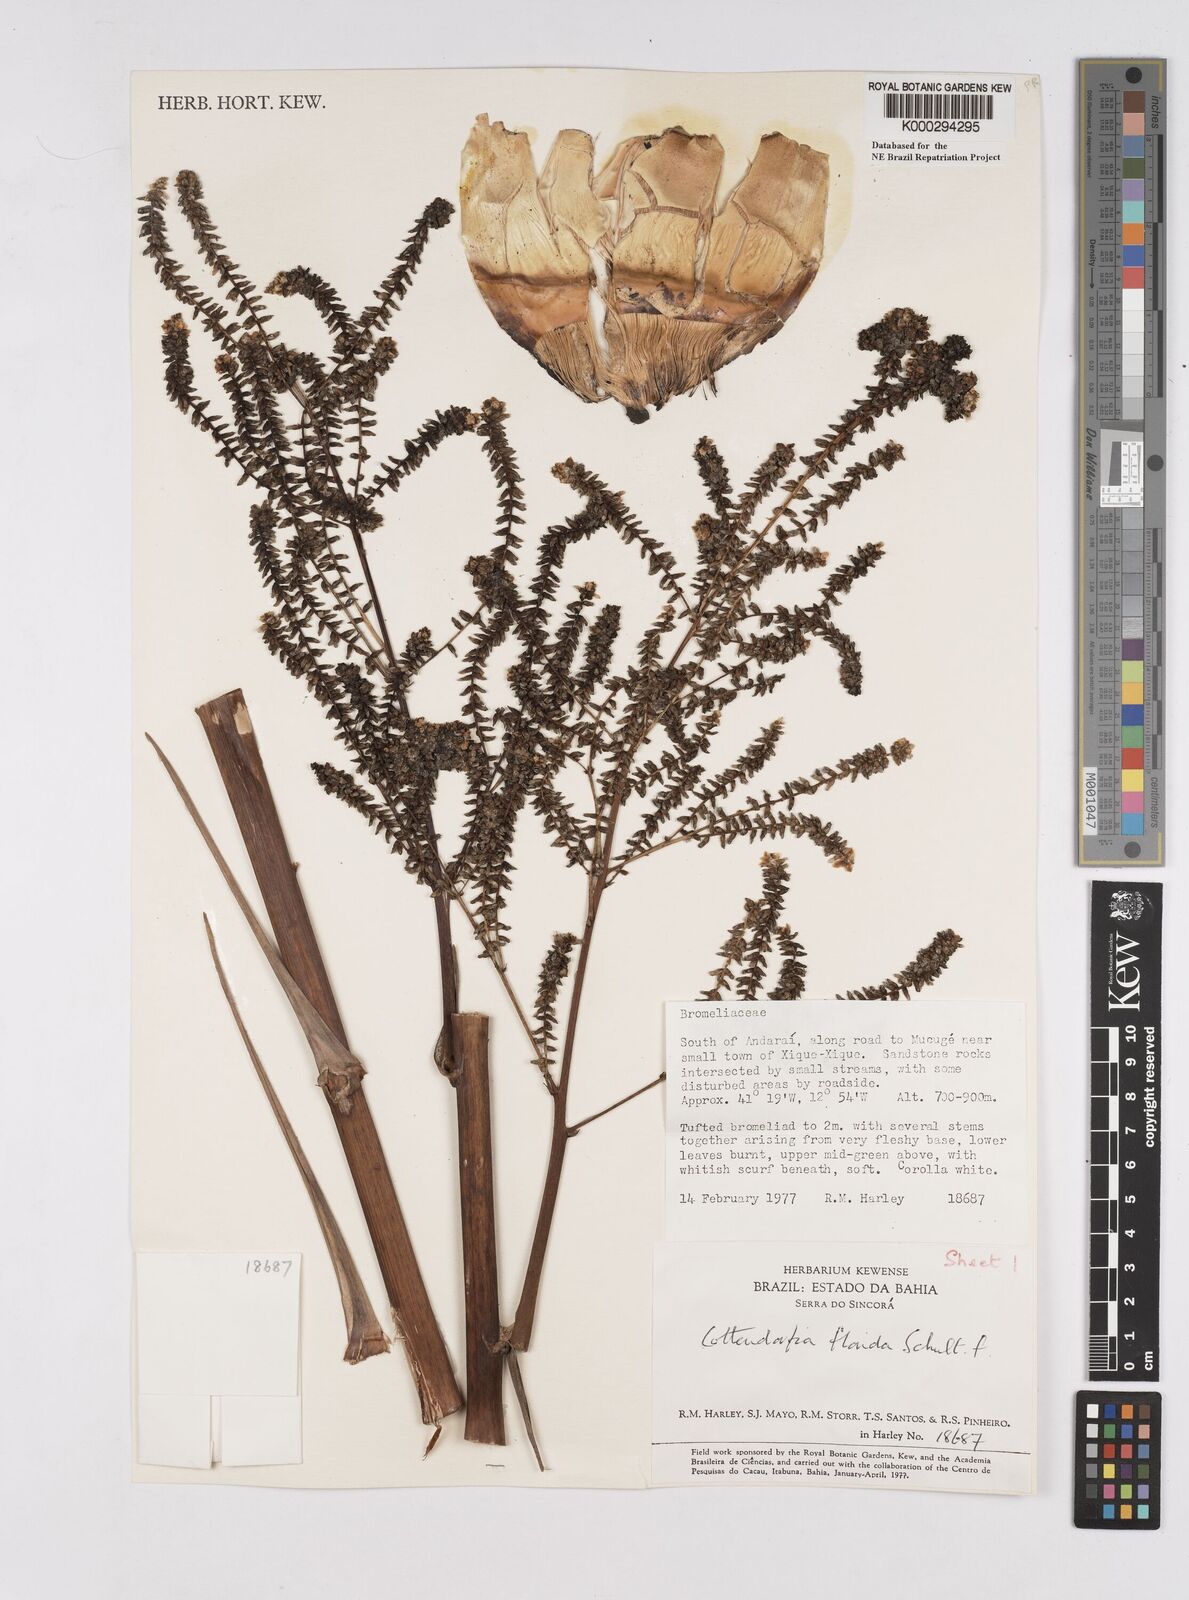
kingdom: Plantae
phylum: Tracheophyta
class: Liliopsida
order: Poales
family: Bromeliaceae
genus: Cottendorfia
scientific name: Cottendorfia florida
